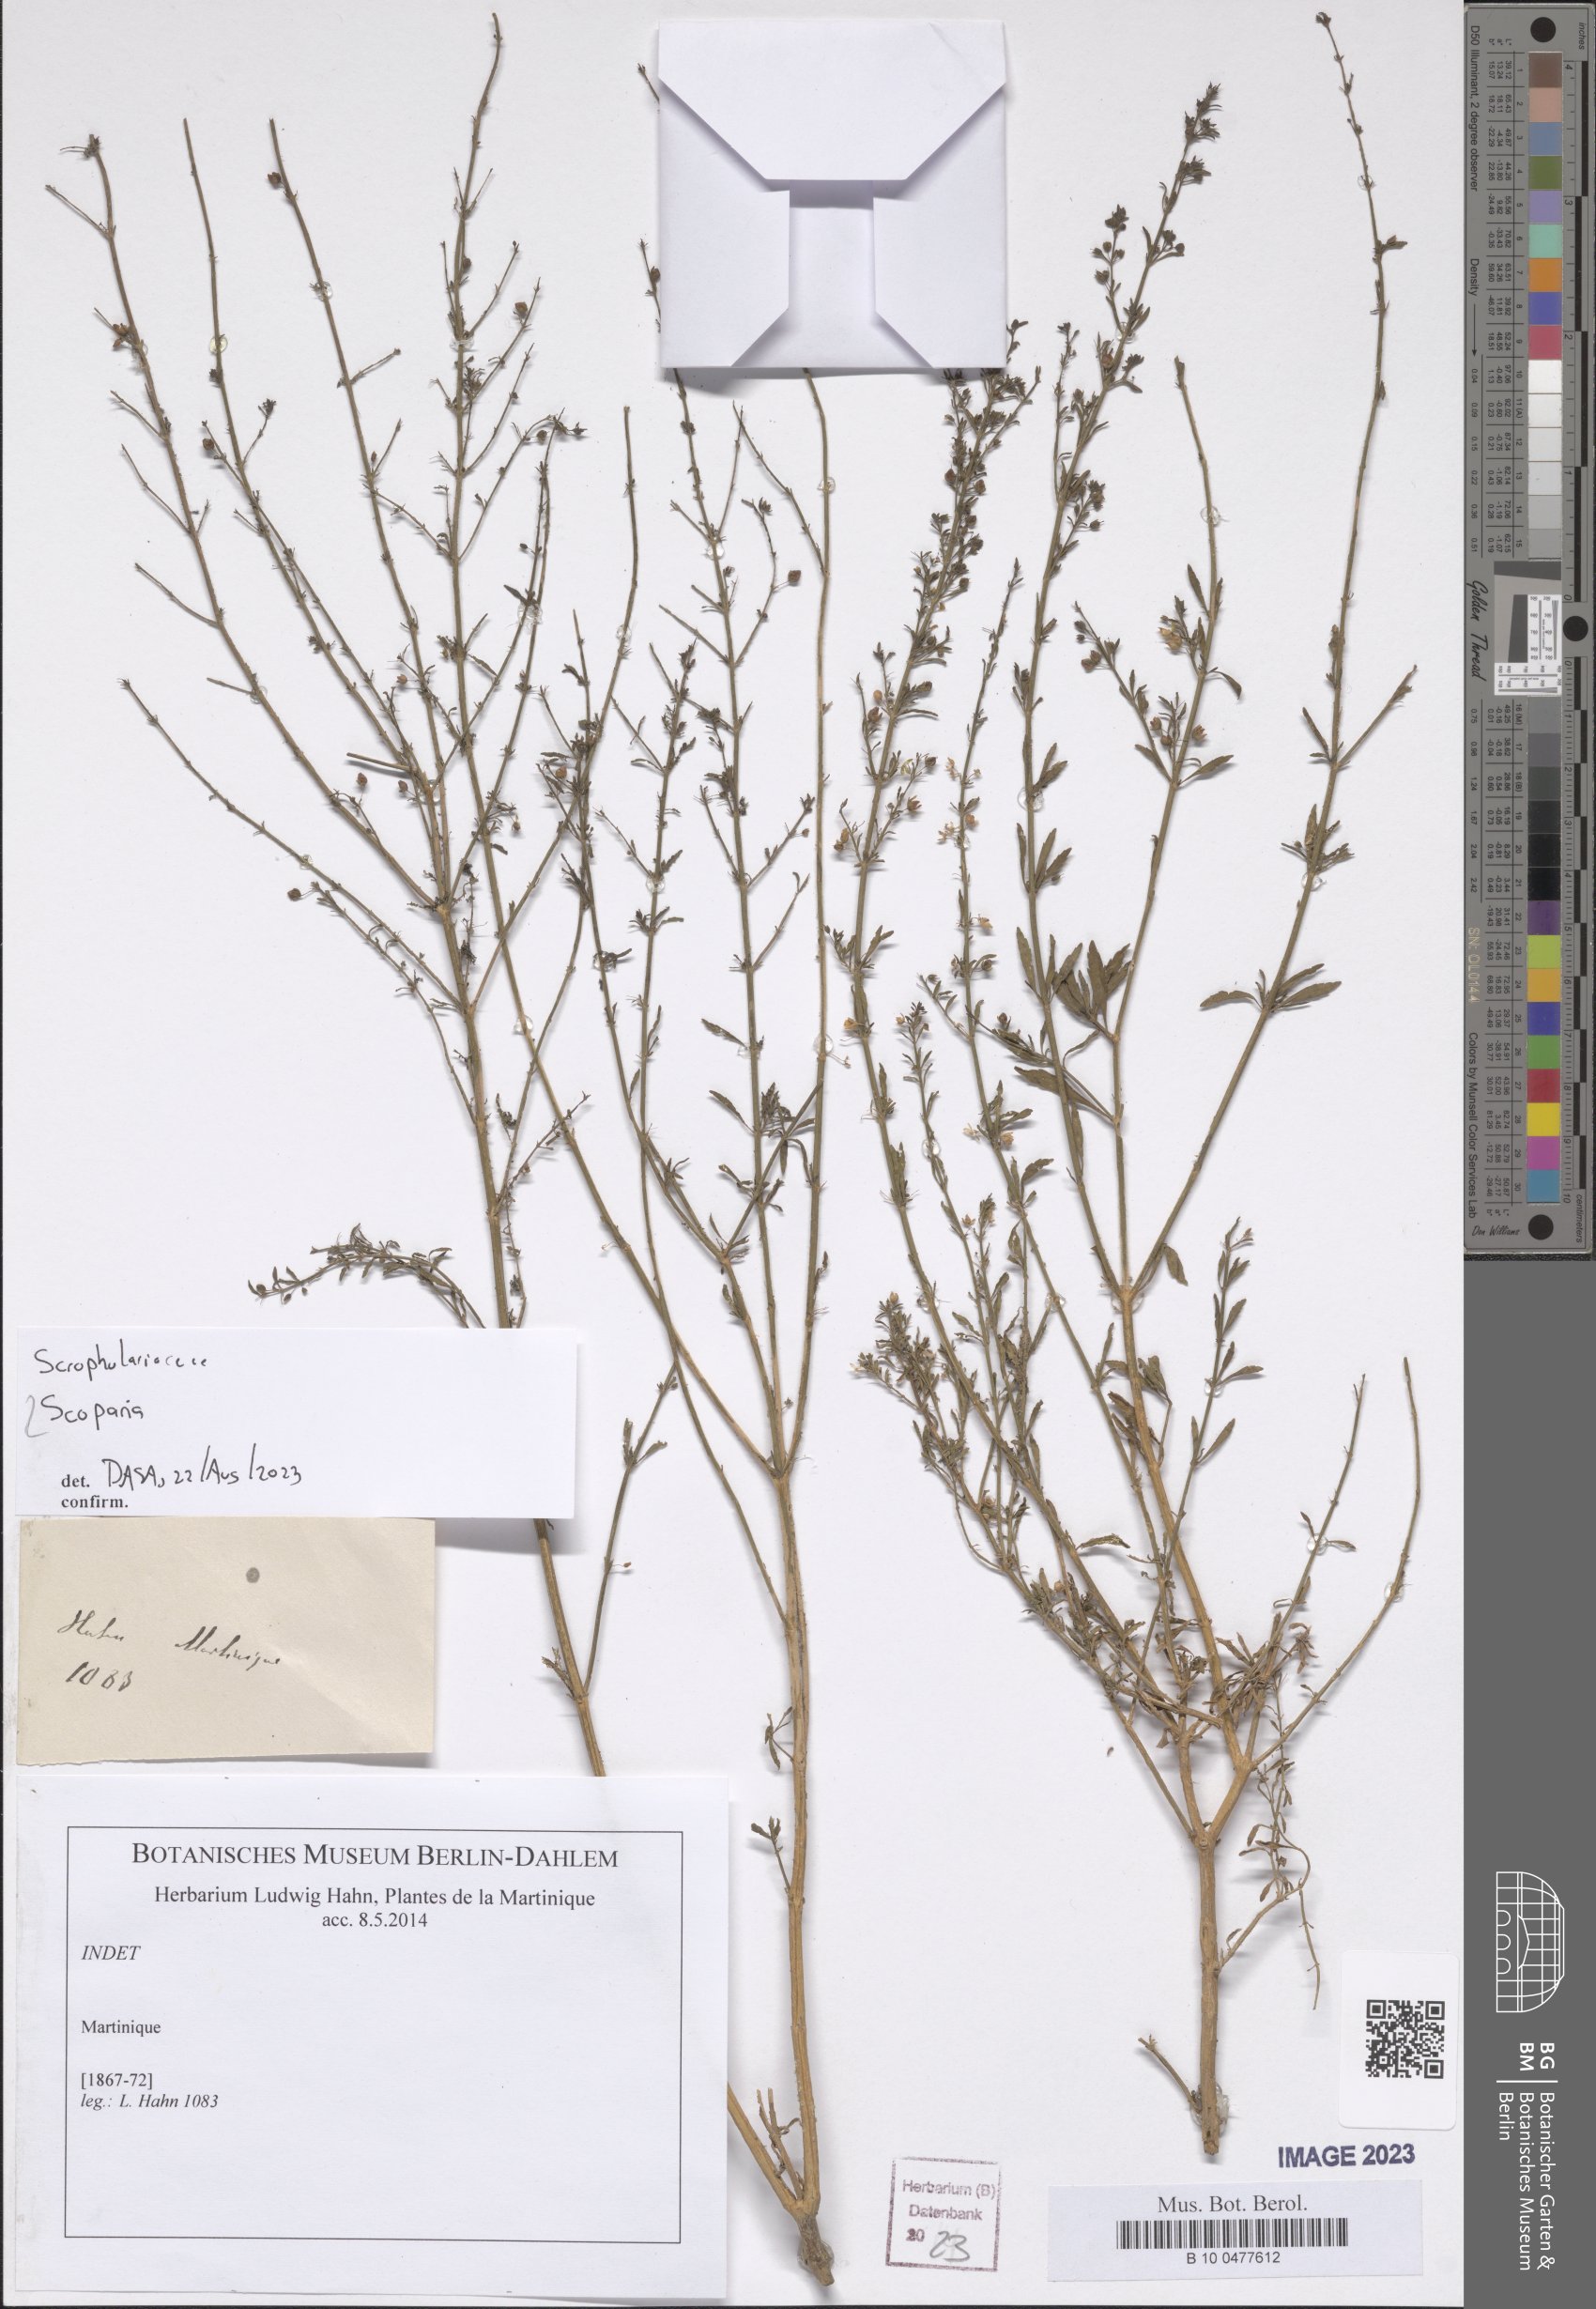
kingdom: Plantae
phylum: Tracheophyta
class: Magnoliopsida
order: Lamiales
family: Plantaginaceae
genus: Scoparia
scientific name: Scoparia
